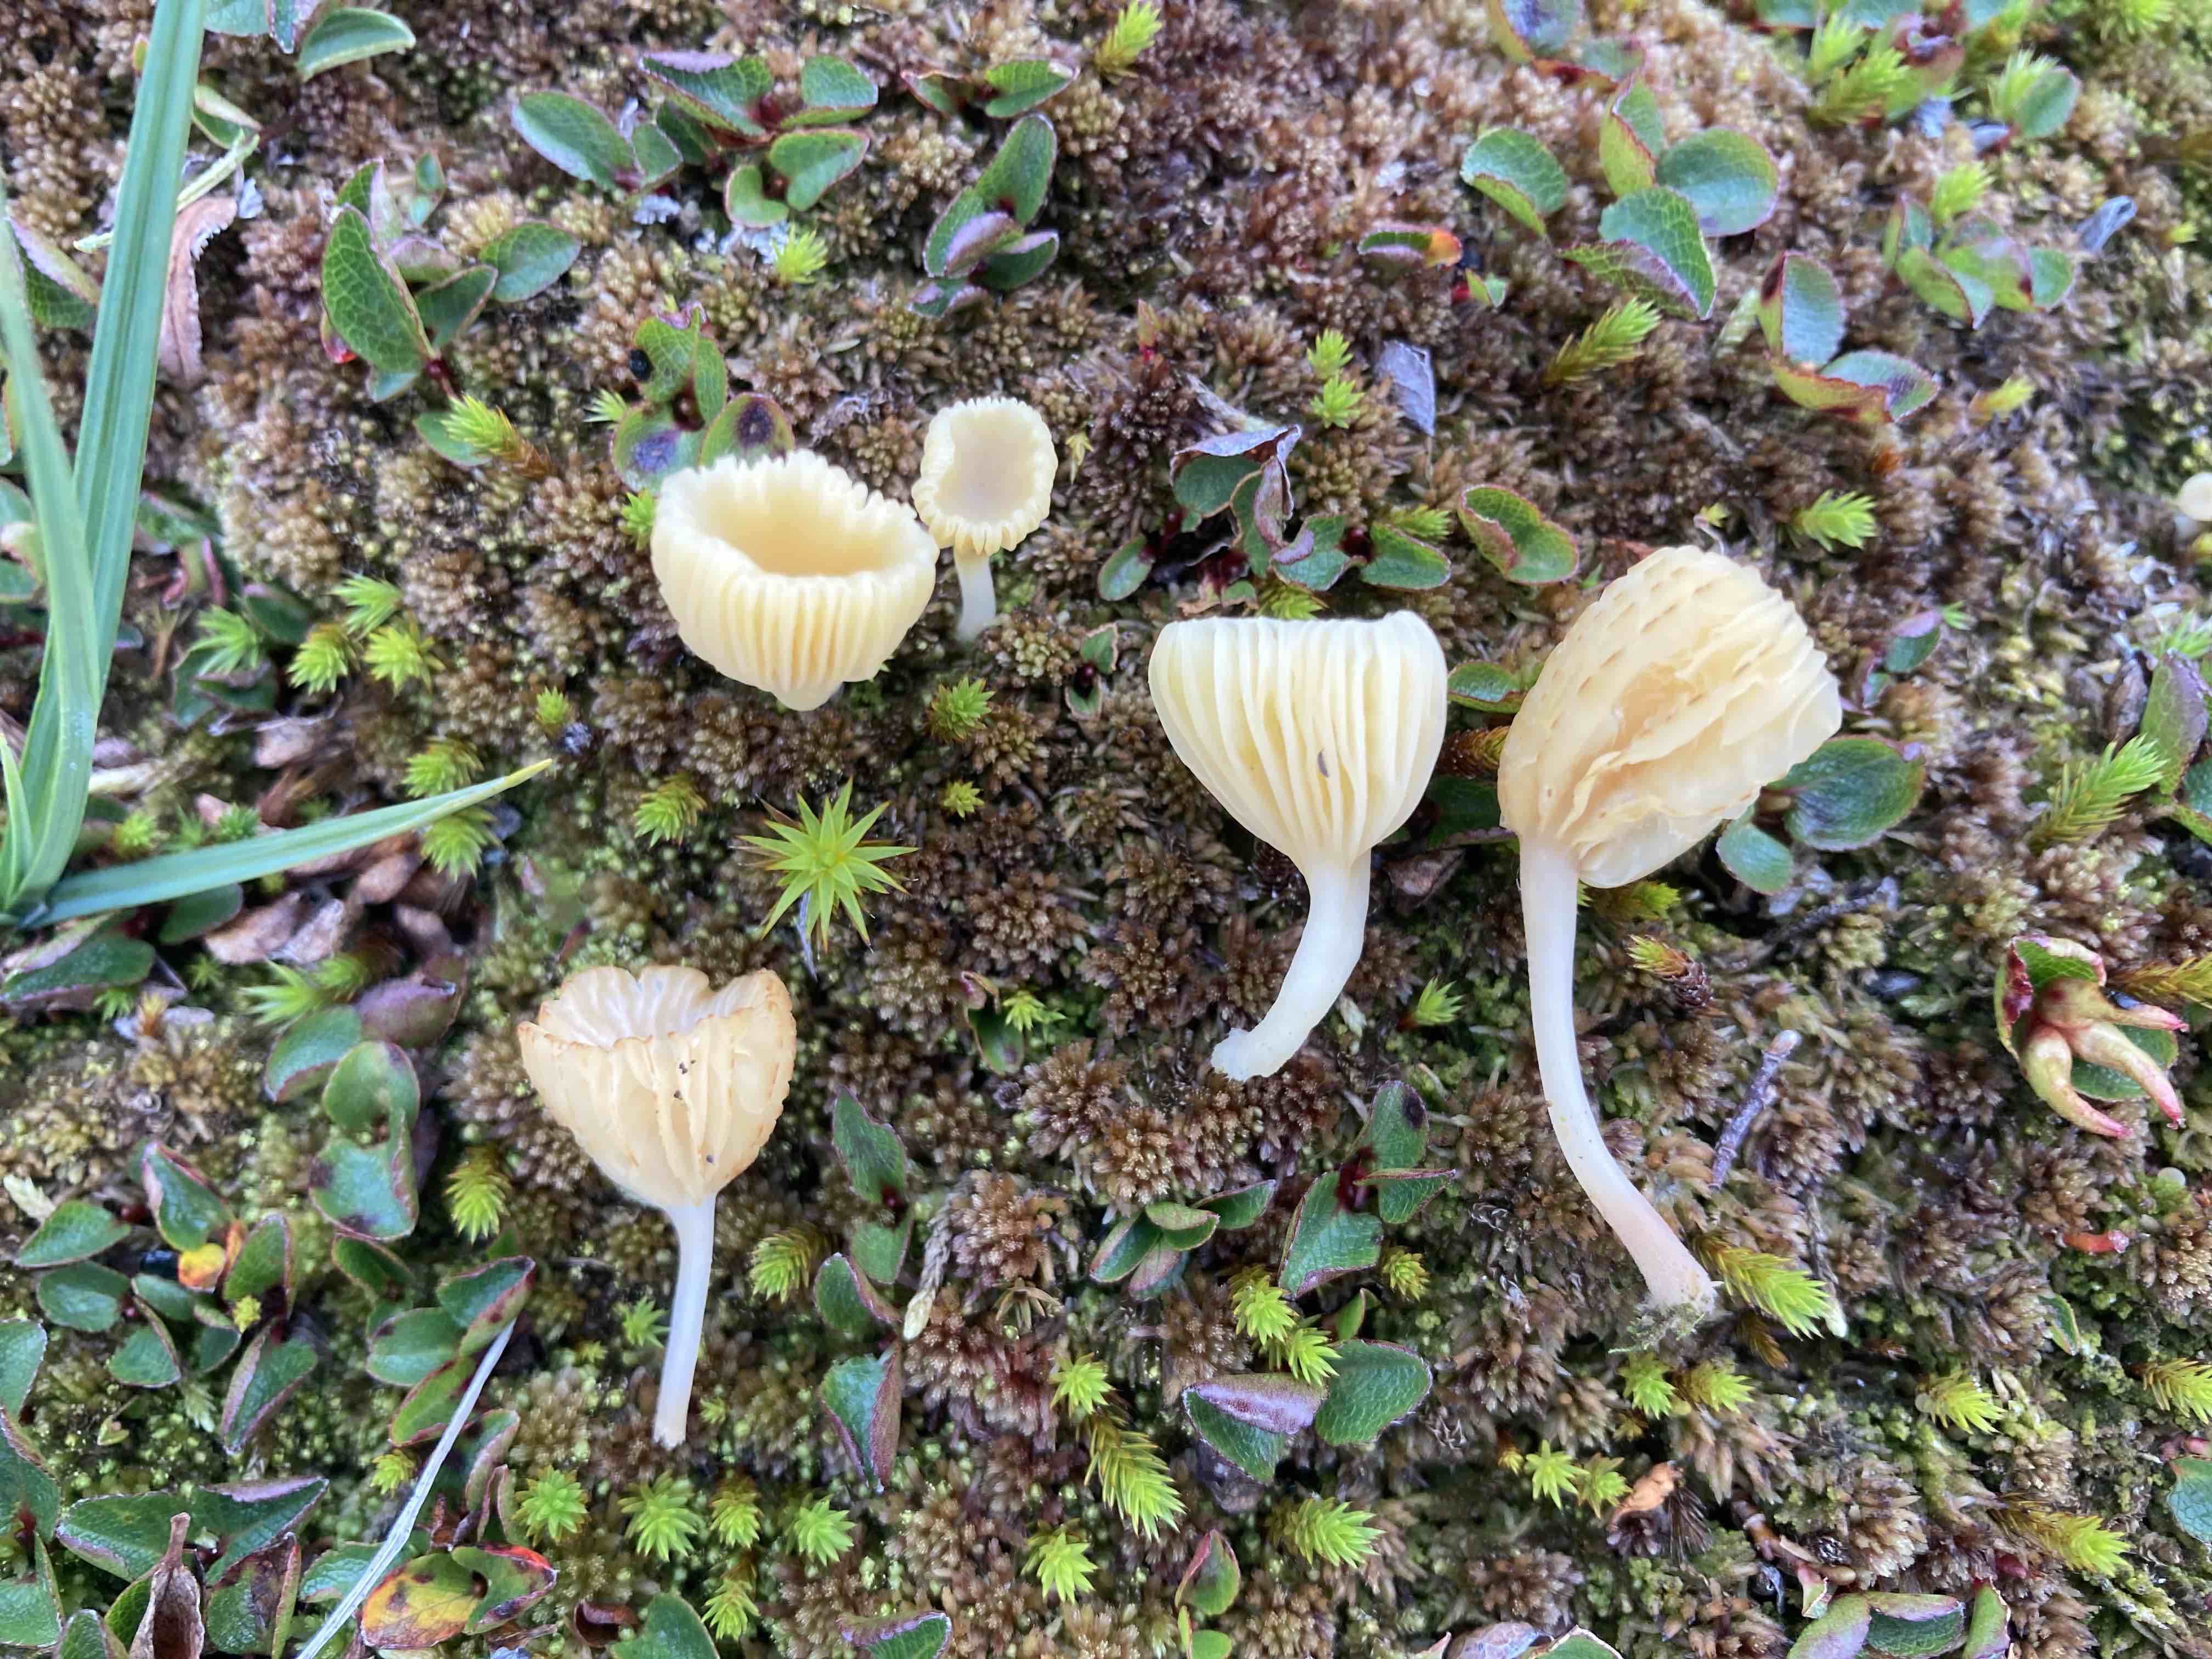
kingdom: Fungi
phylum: Basidiomycota
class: Agaricomycetes
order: Agaricales
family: Hygrophoraceae
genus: Lichenomphalia
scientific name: Lichenomphalia umbellifera
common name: tørve-lavhat
